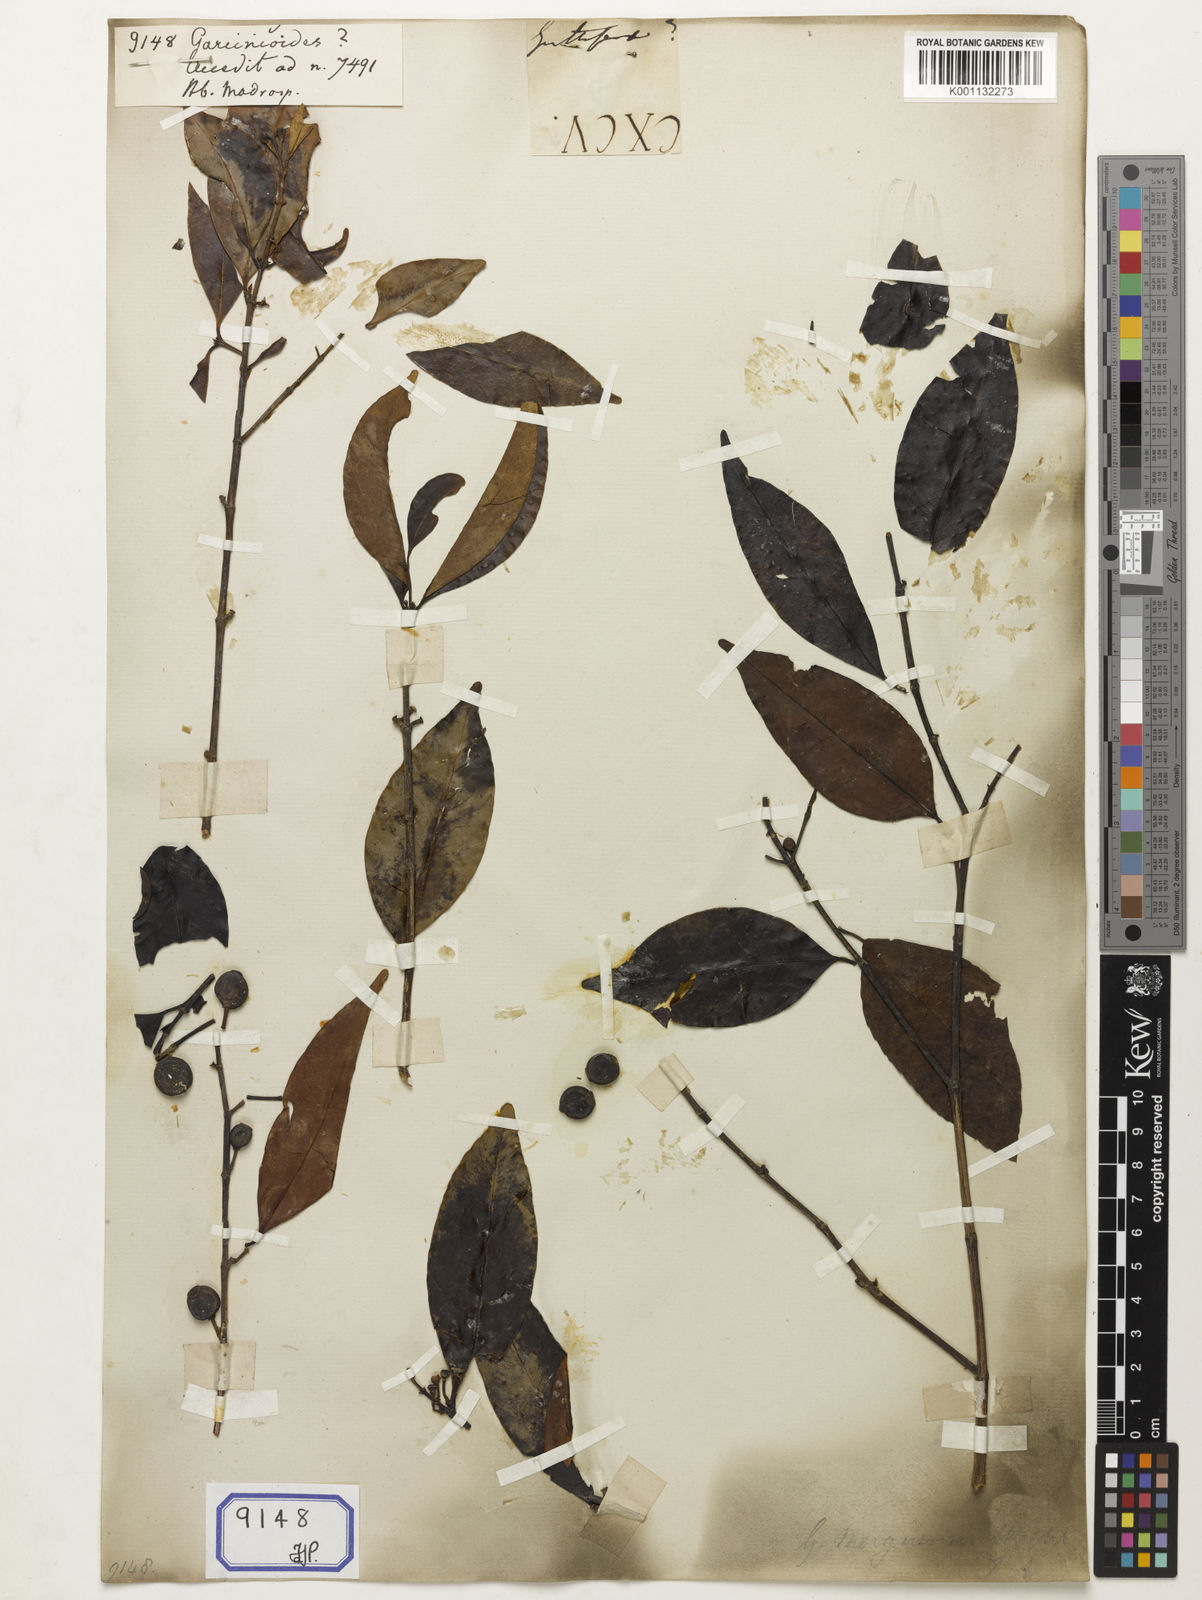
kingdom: Plantae
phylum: Tracheophyta
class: Magnoliopsida
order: Malpighiales
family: Clusiaceae
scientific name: Clusiaceae
